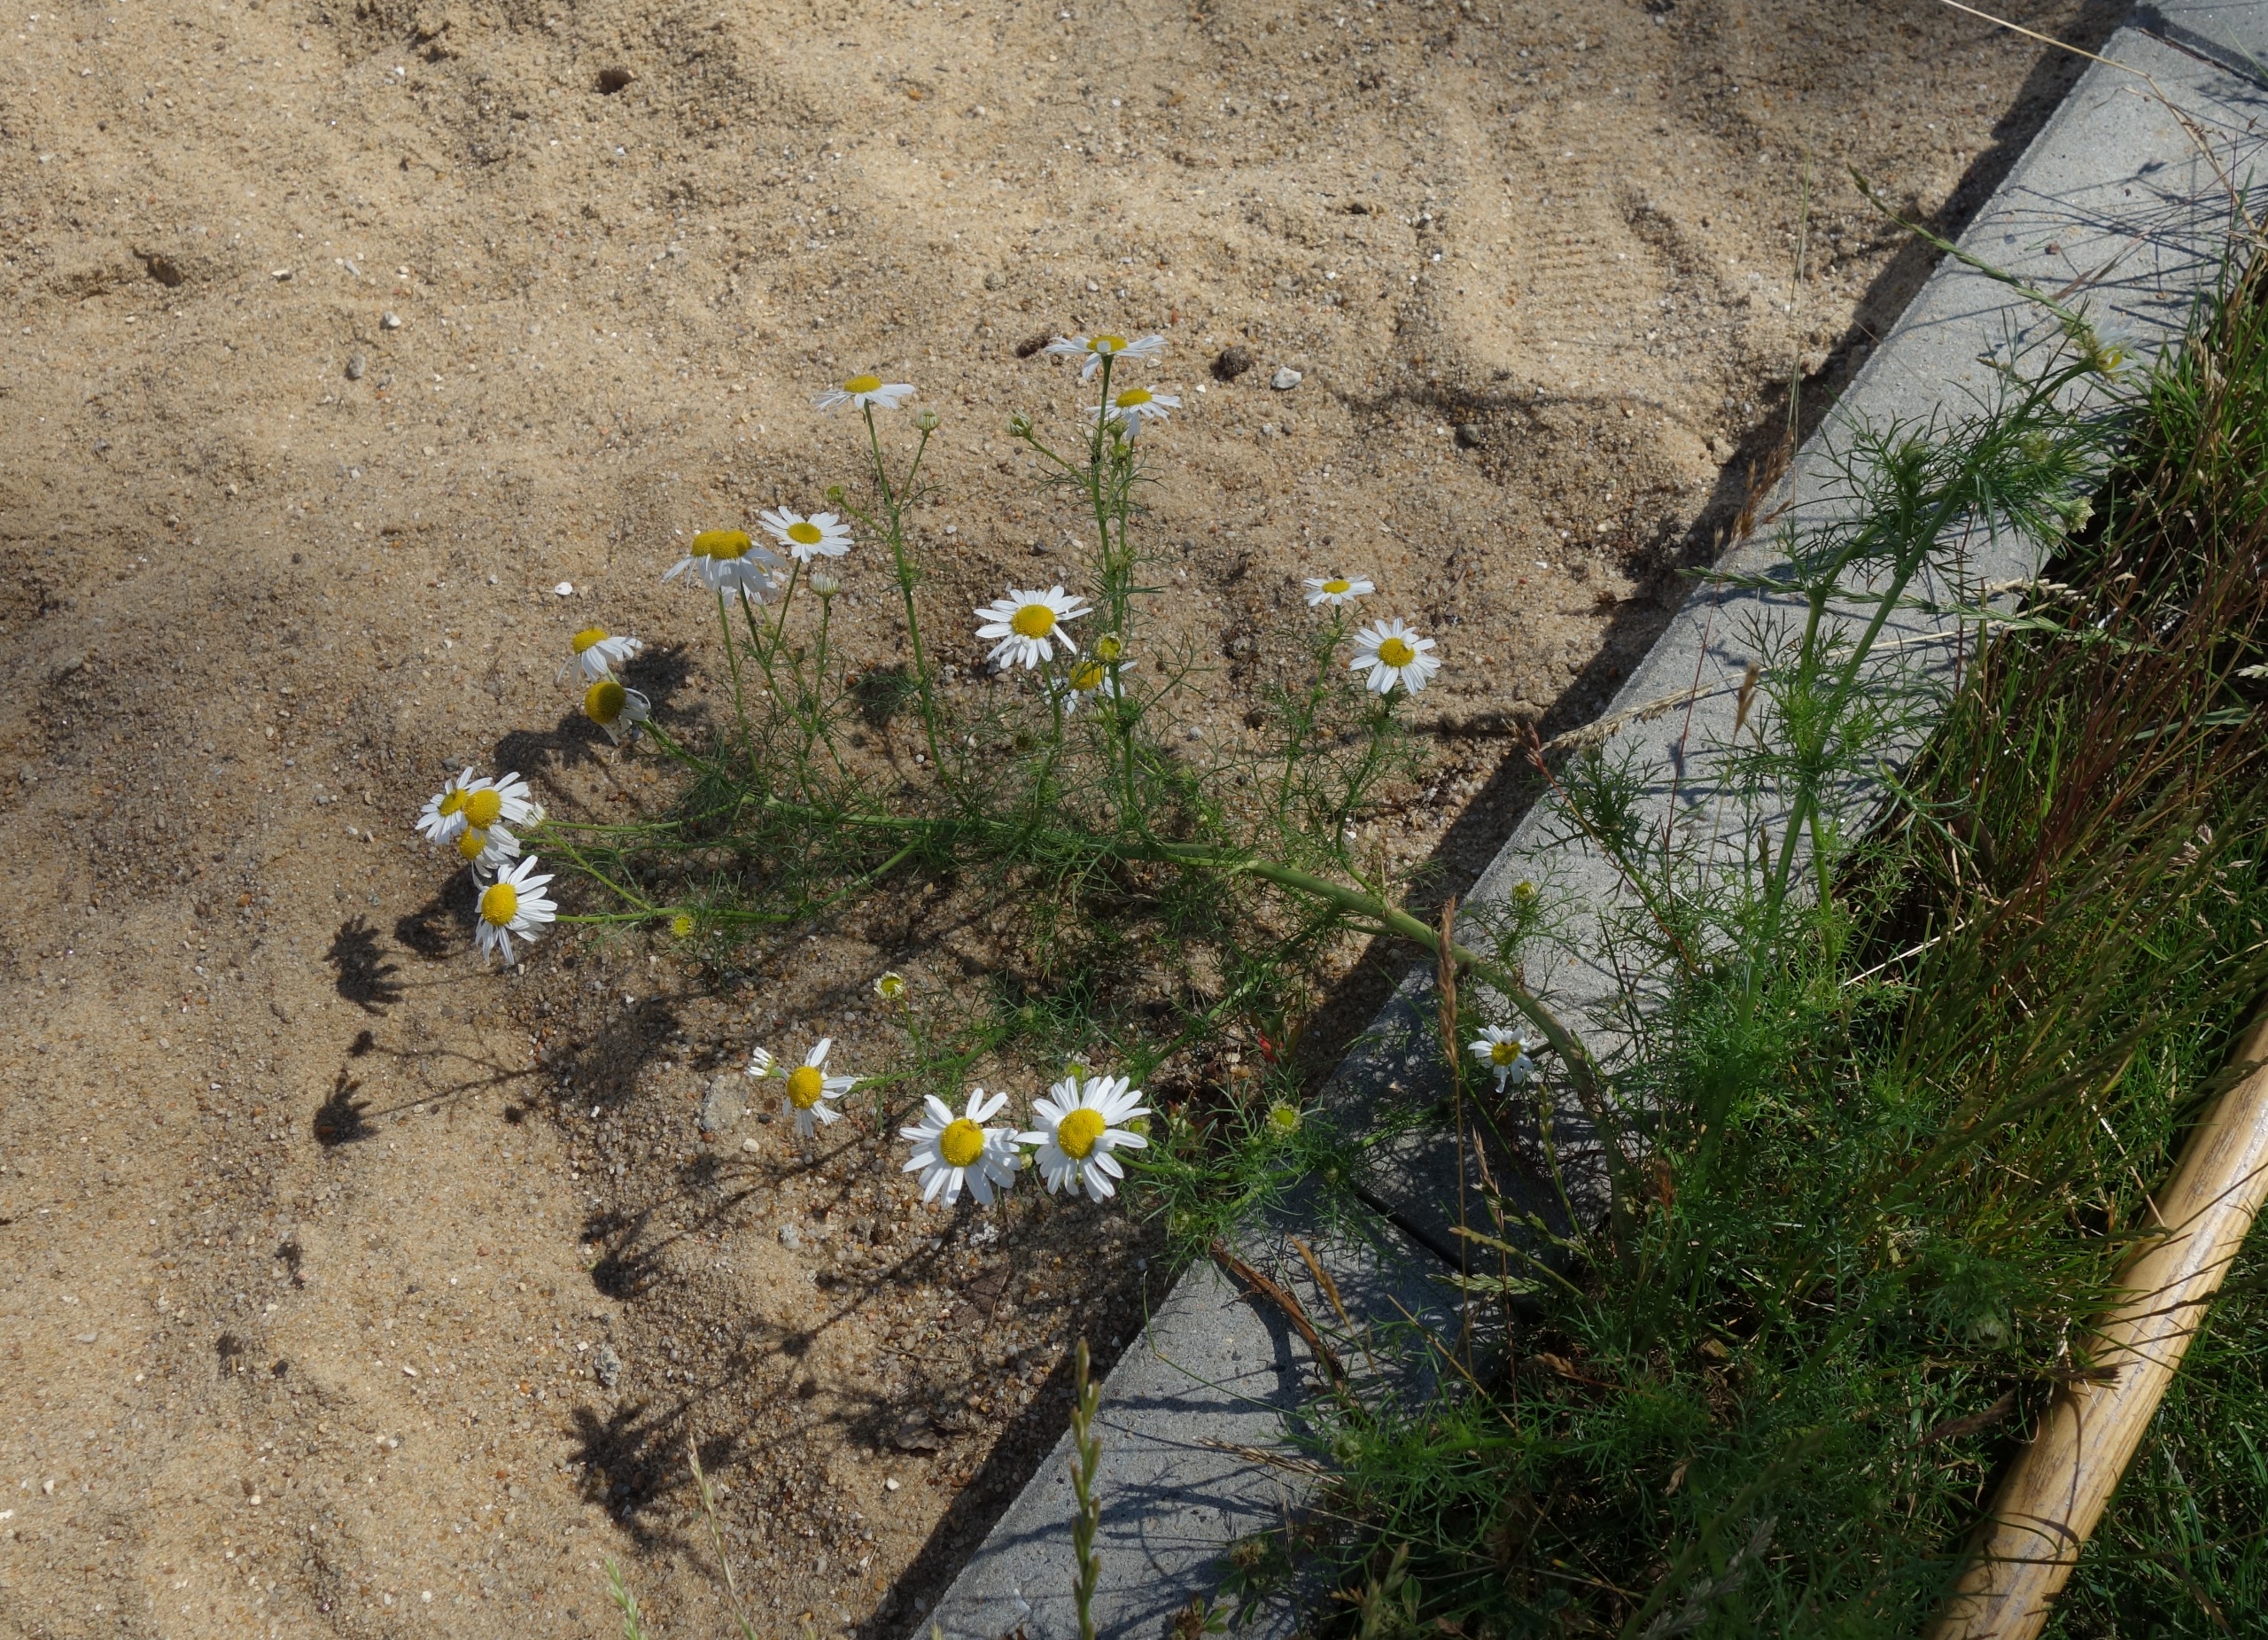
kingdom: Plantae
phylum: Tracheophyta
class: Magnoliopsida
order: Asterales
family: Asteraceae
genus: Tripleurospermum
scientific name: Tripleurospermum inodorum
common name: Lugtløs kamille
